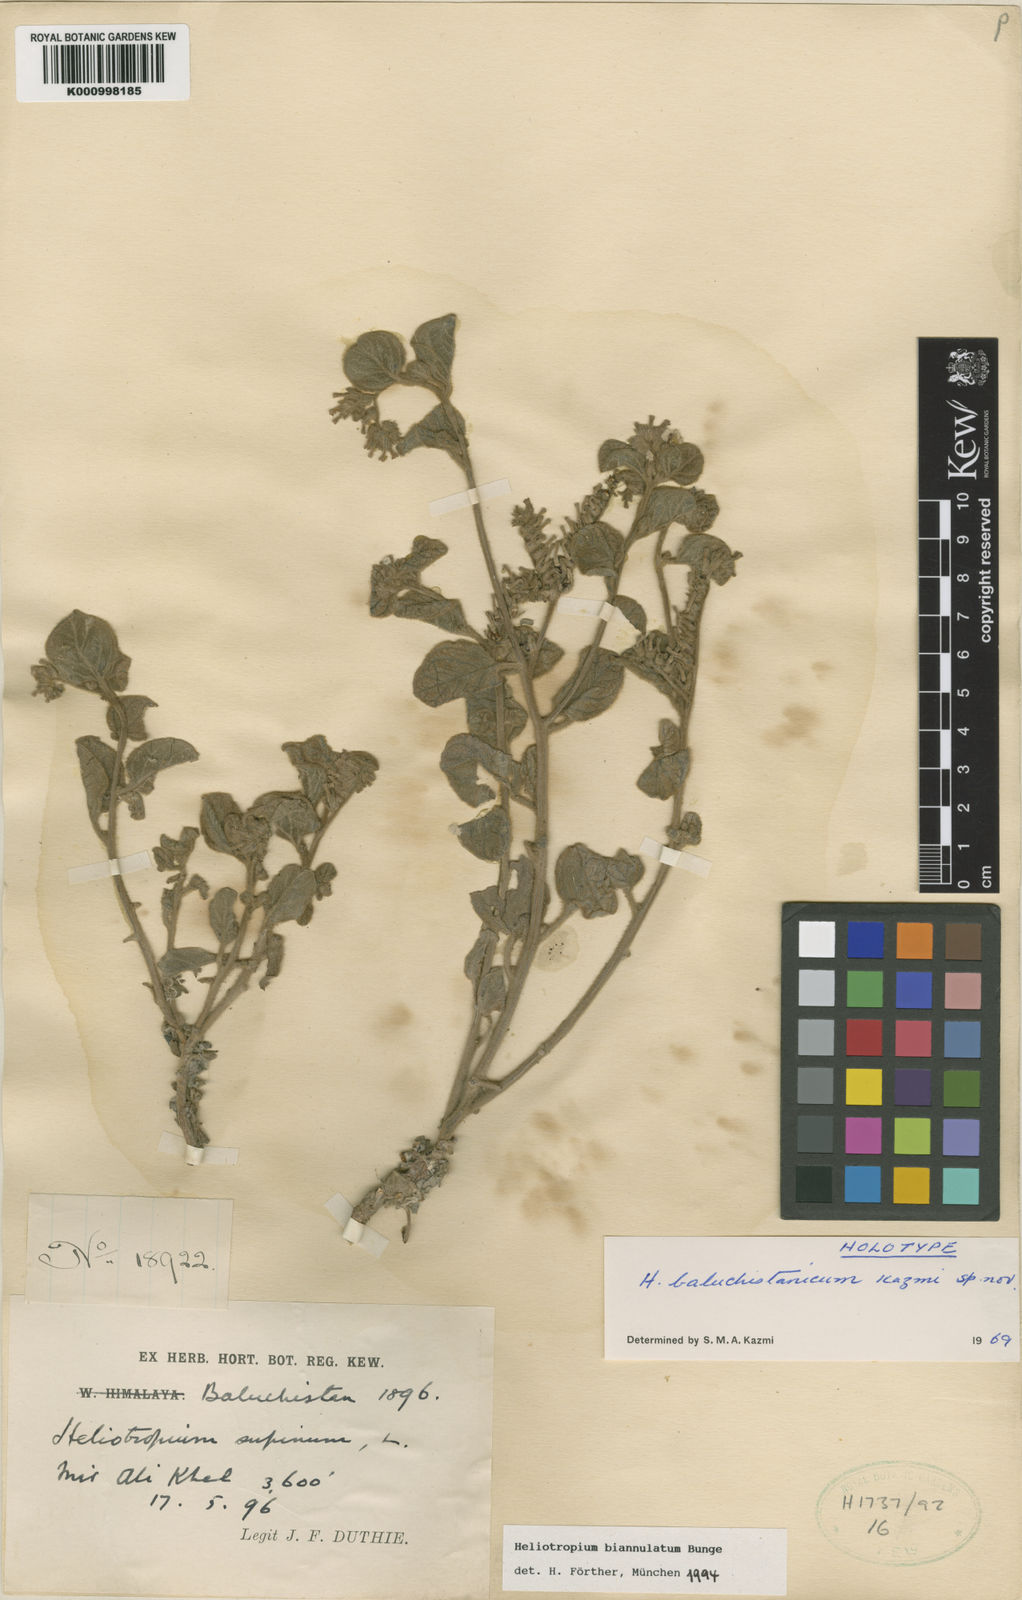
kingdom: Plantae
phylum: Tracheophyta
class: Magnoliopsida
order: Boraginales
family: Heliotropiaceae
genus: Heliotropium
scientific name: Heliotropium baluchistanicum
